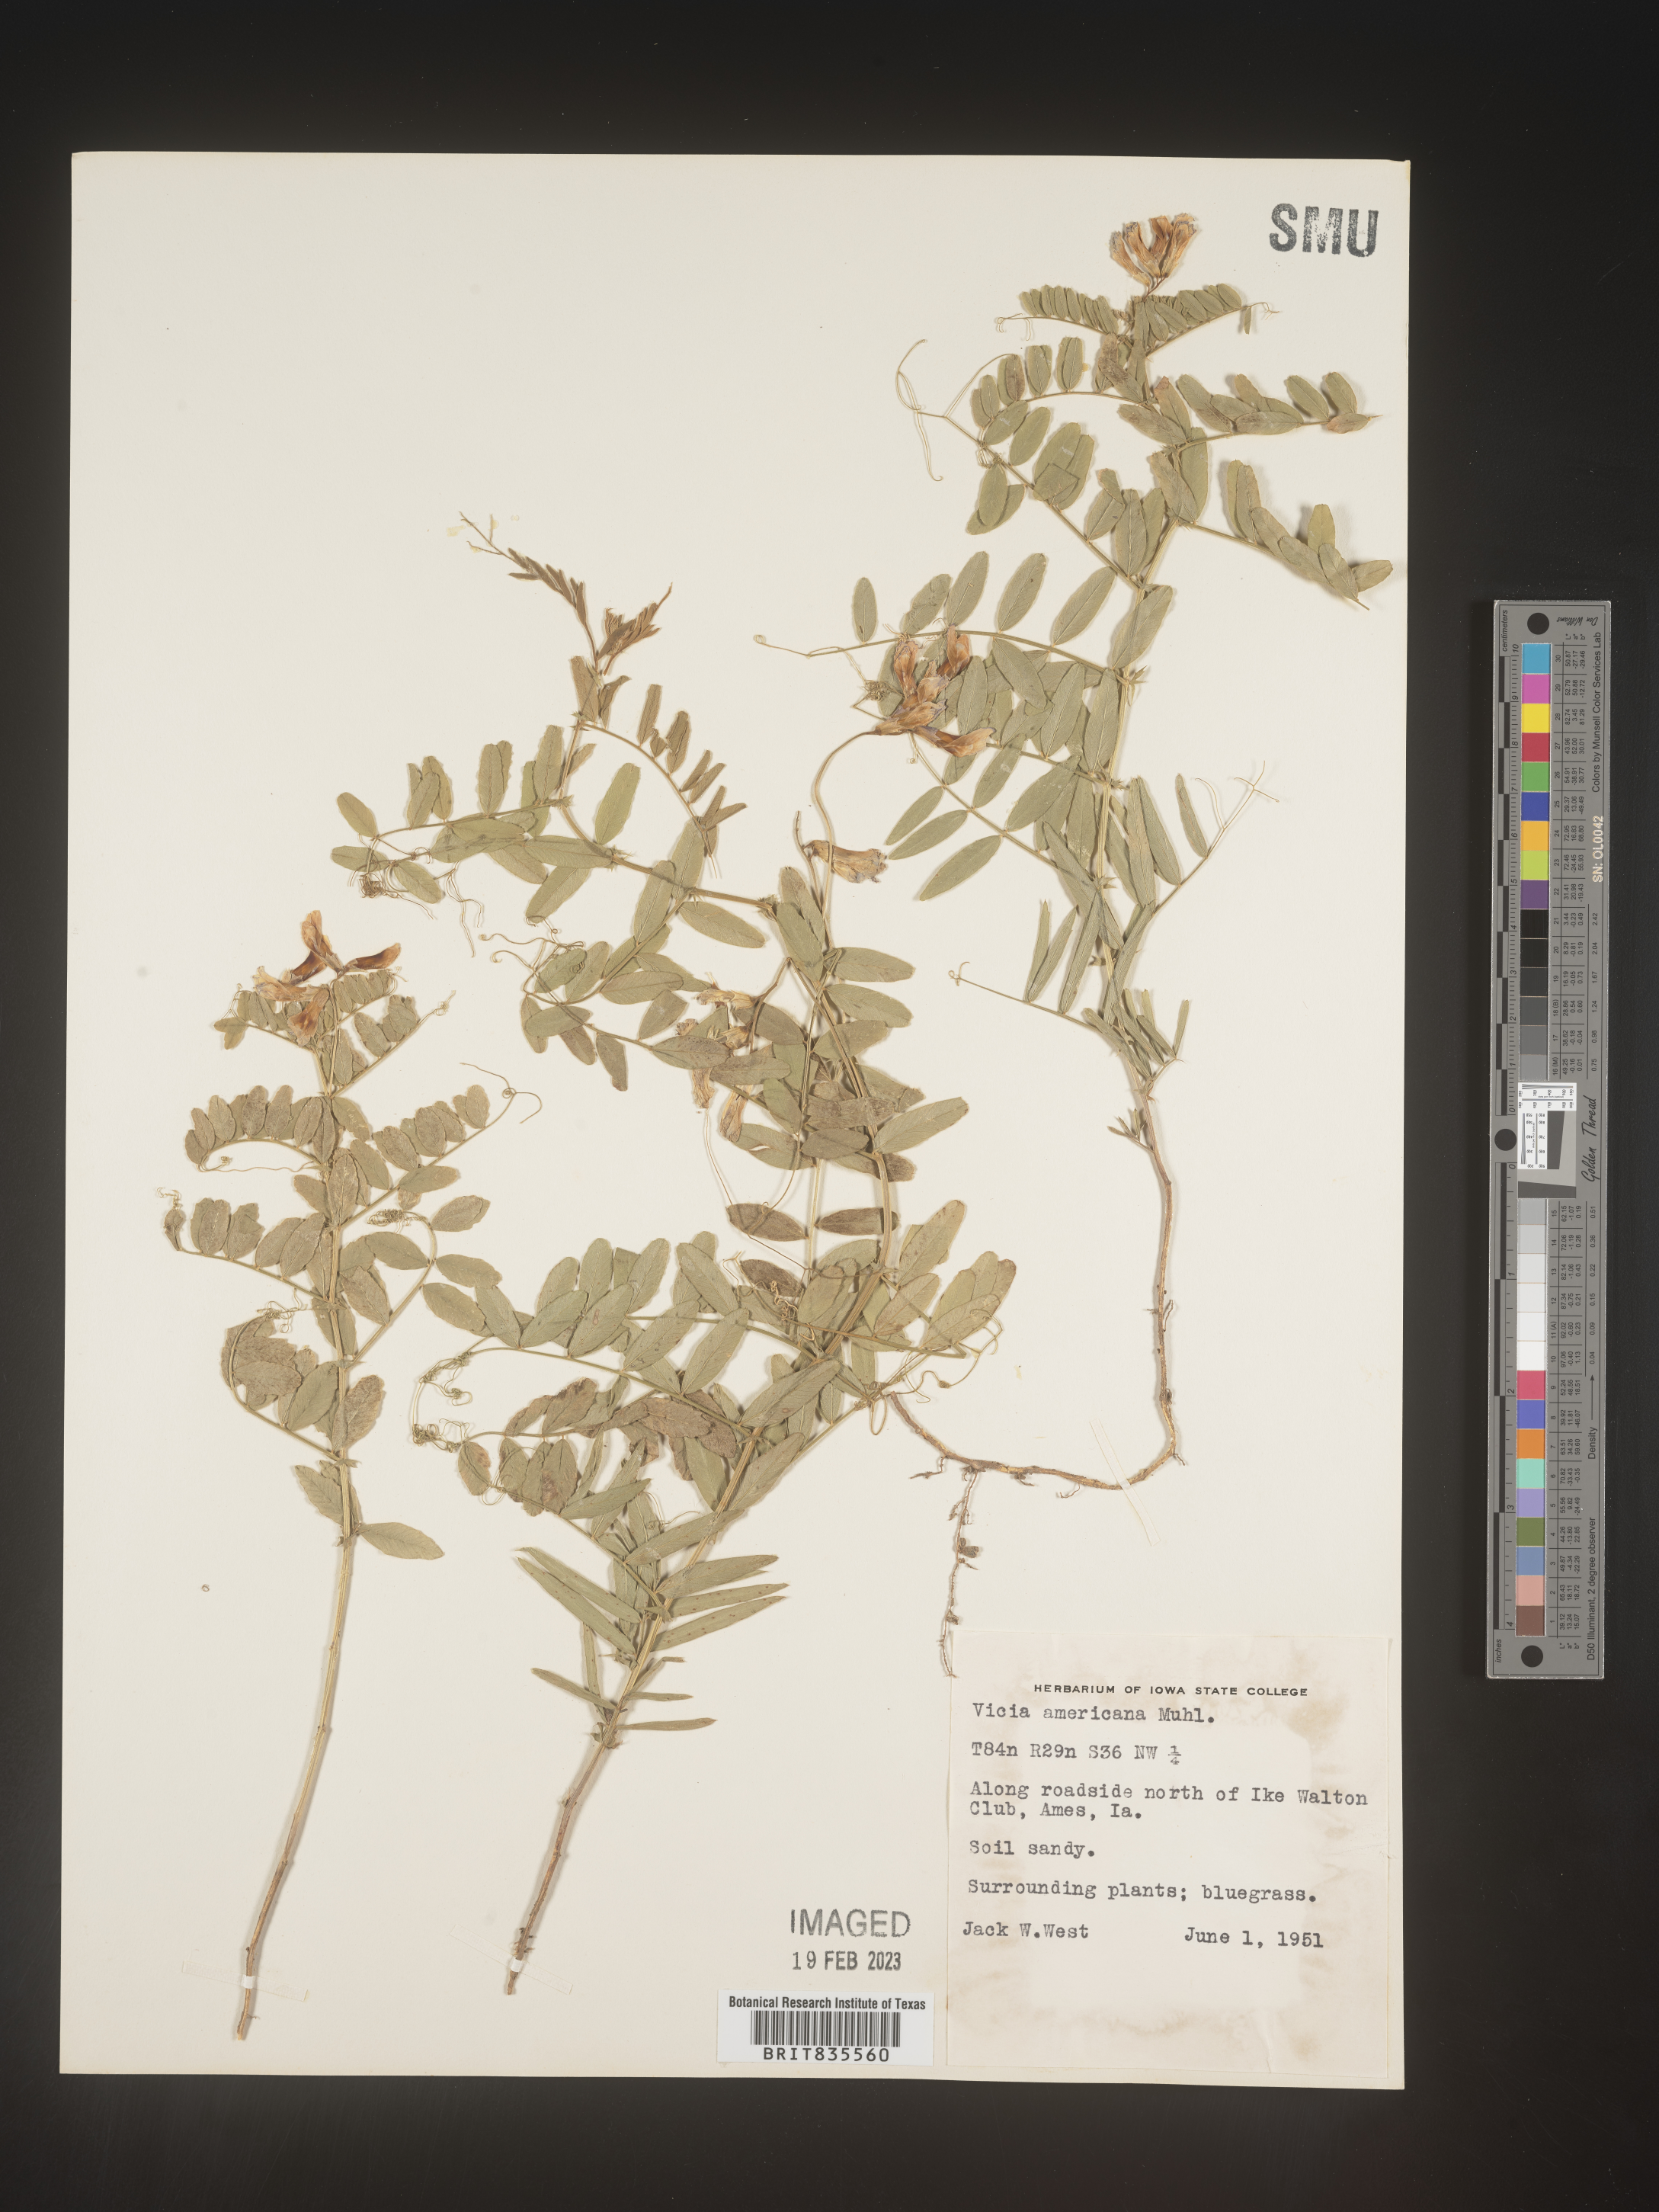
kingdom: Plantae
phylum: Tracheophyta
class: Magnoliopsida
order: Fabales
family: Fabaceae
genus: Vicia
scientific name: Vicia americana
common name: American vetch
